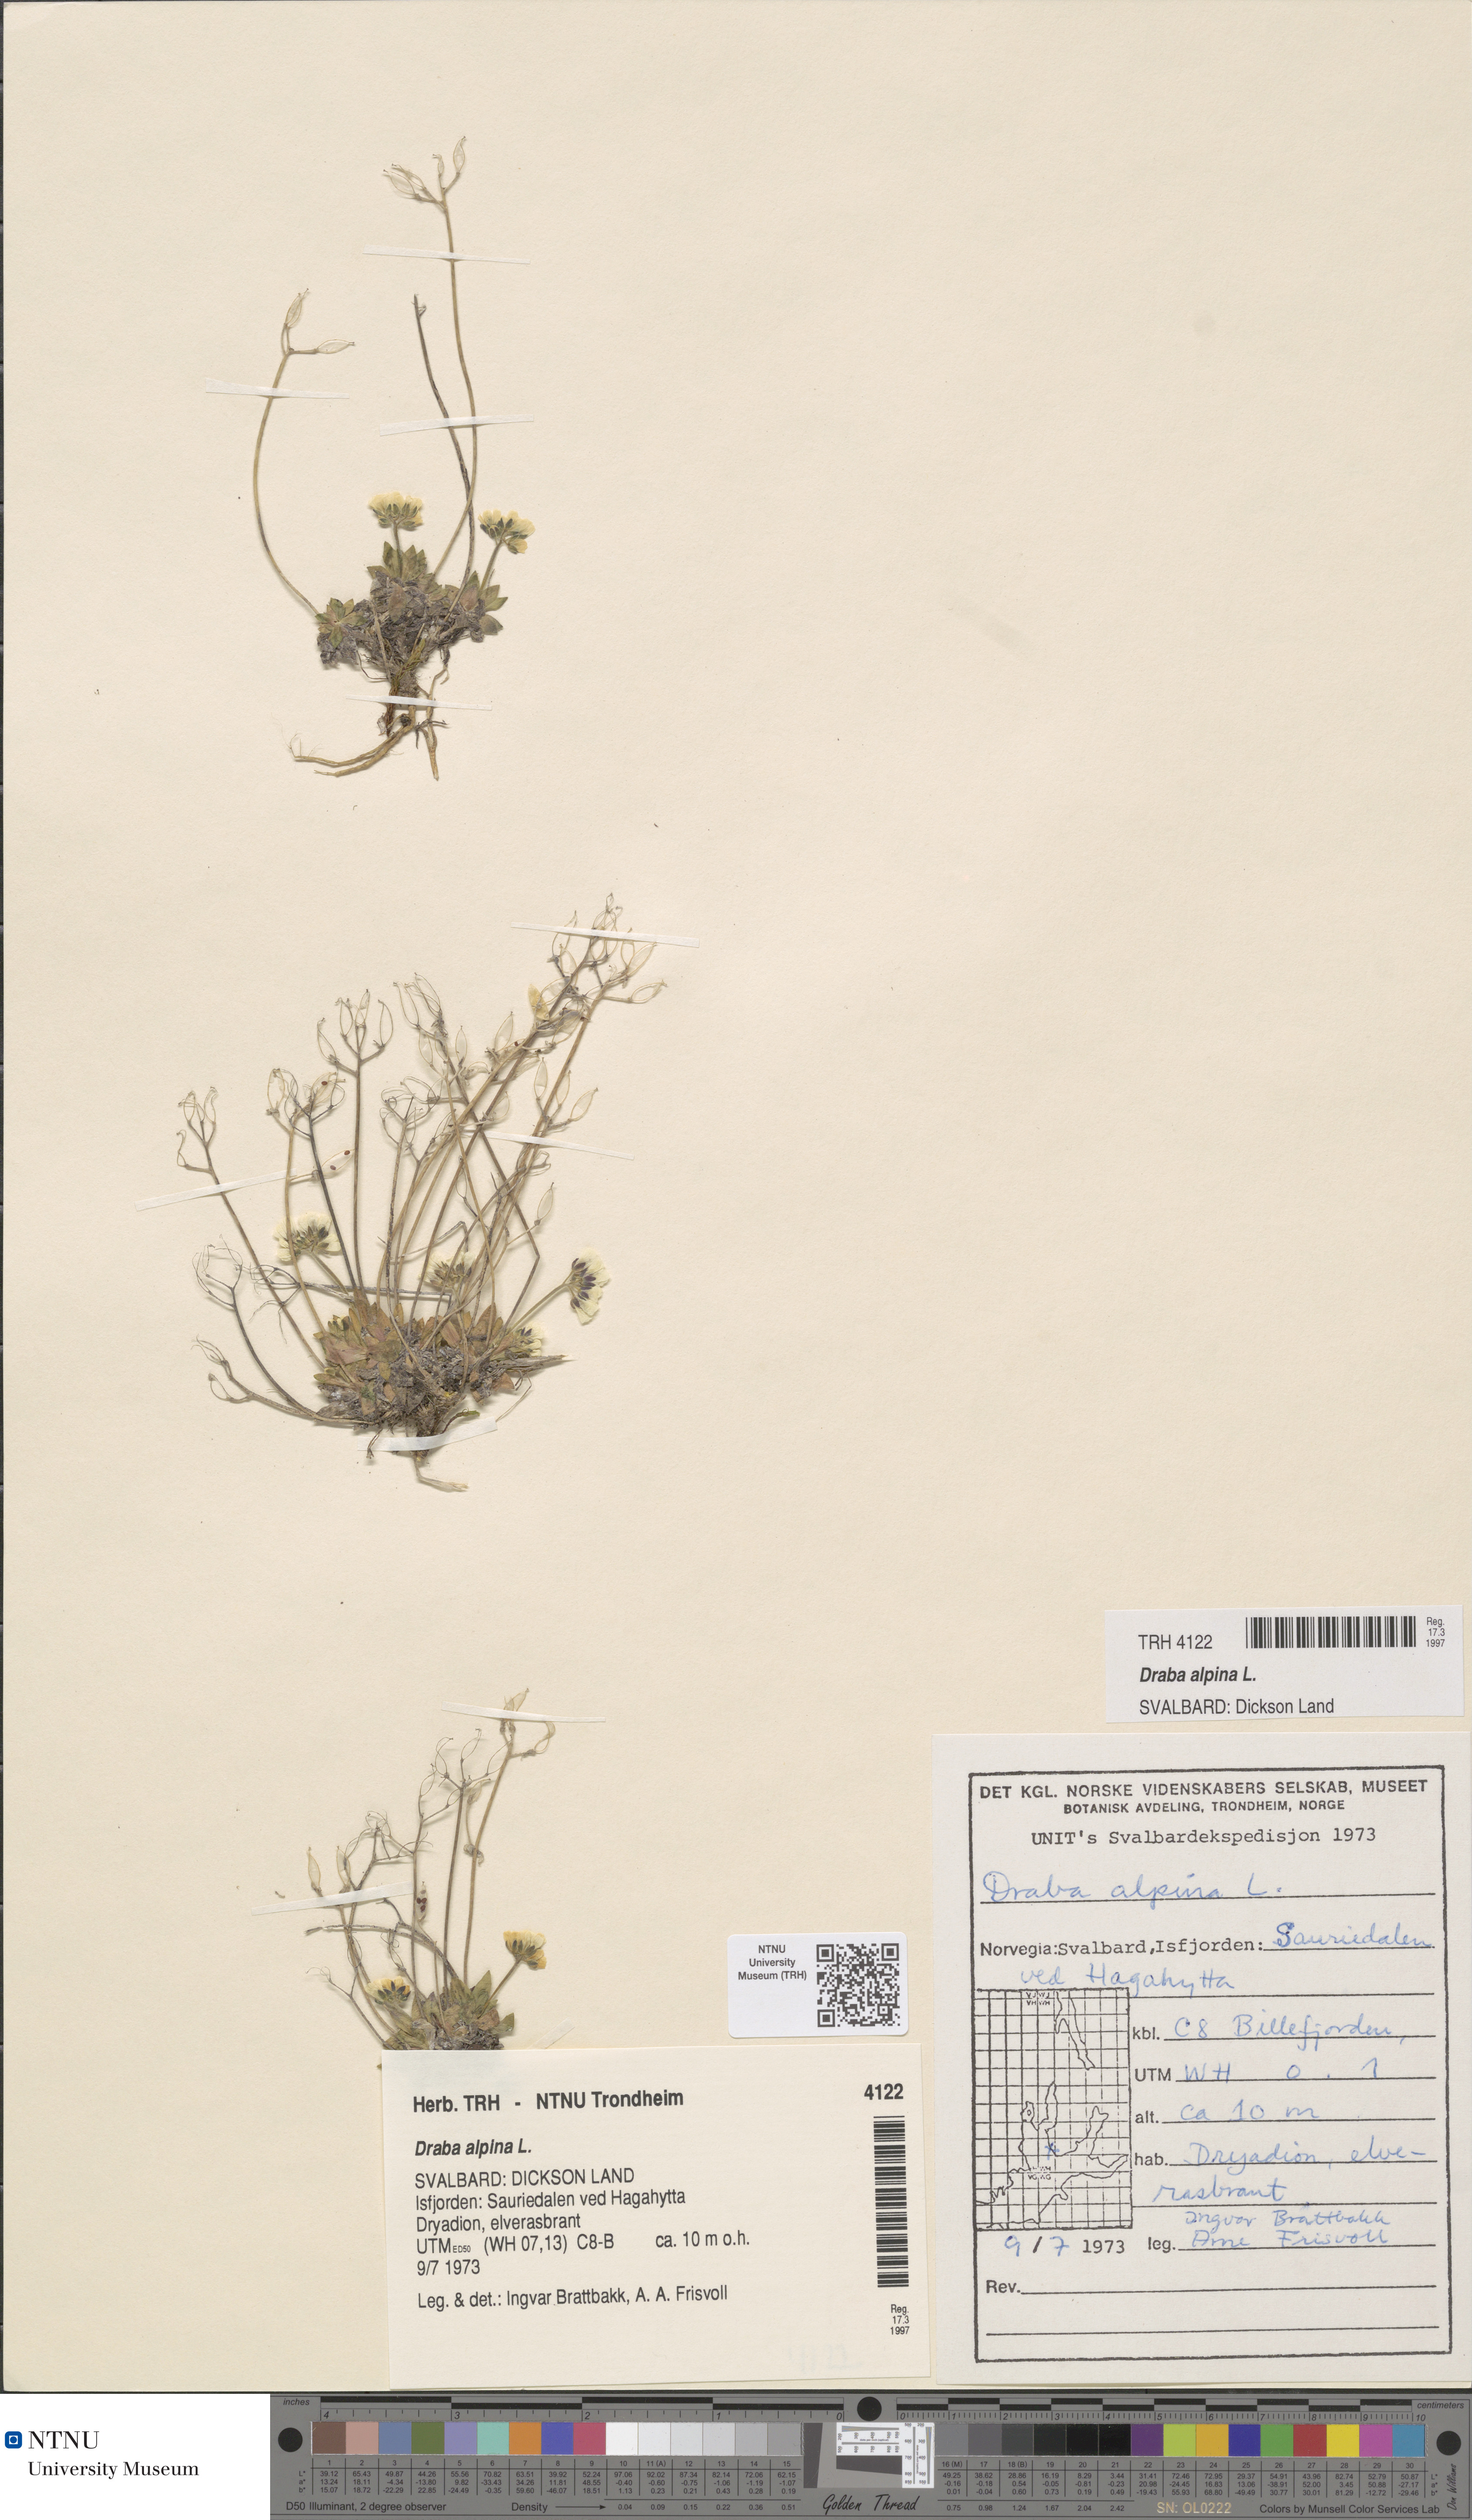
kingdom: Plantae
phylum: Tracheophyta
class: Magnoliopsida
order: Brassicales
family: Brassicaceae
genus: Draba
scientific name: Draba alpina
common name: Alpine draba
